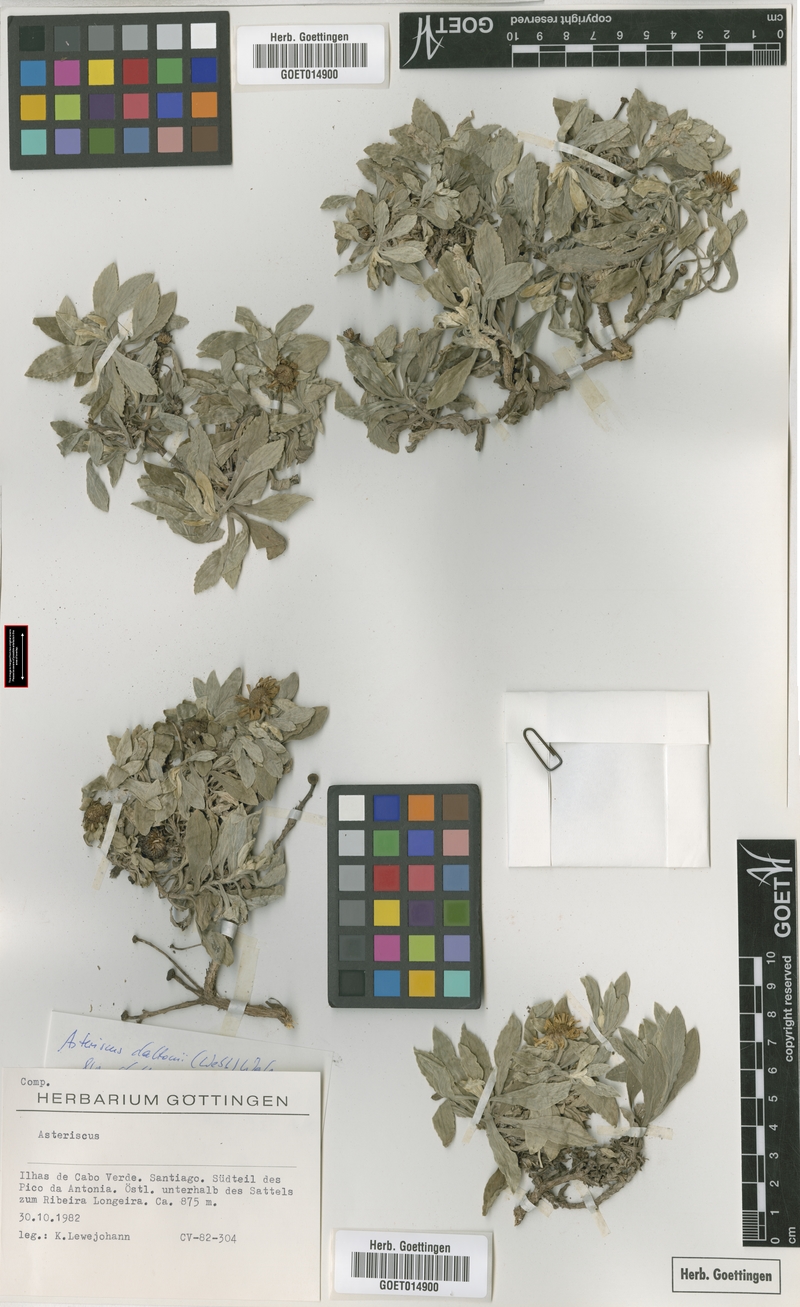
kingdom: Plantae
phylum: Tracheophyta
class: Magnoliopsida
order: Asterales
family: Asteraceae
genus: Asteriscus
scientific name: Asteriscus daltonii
